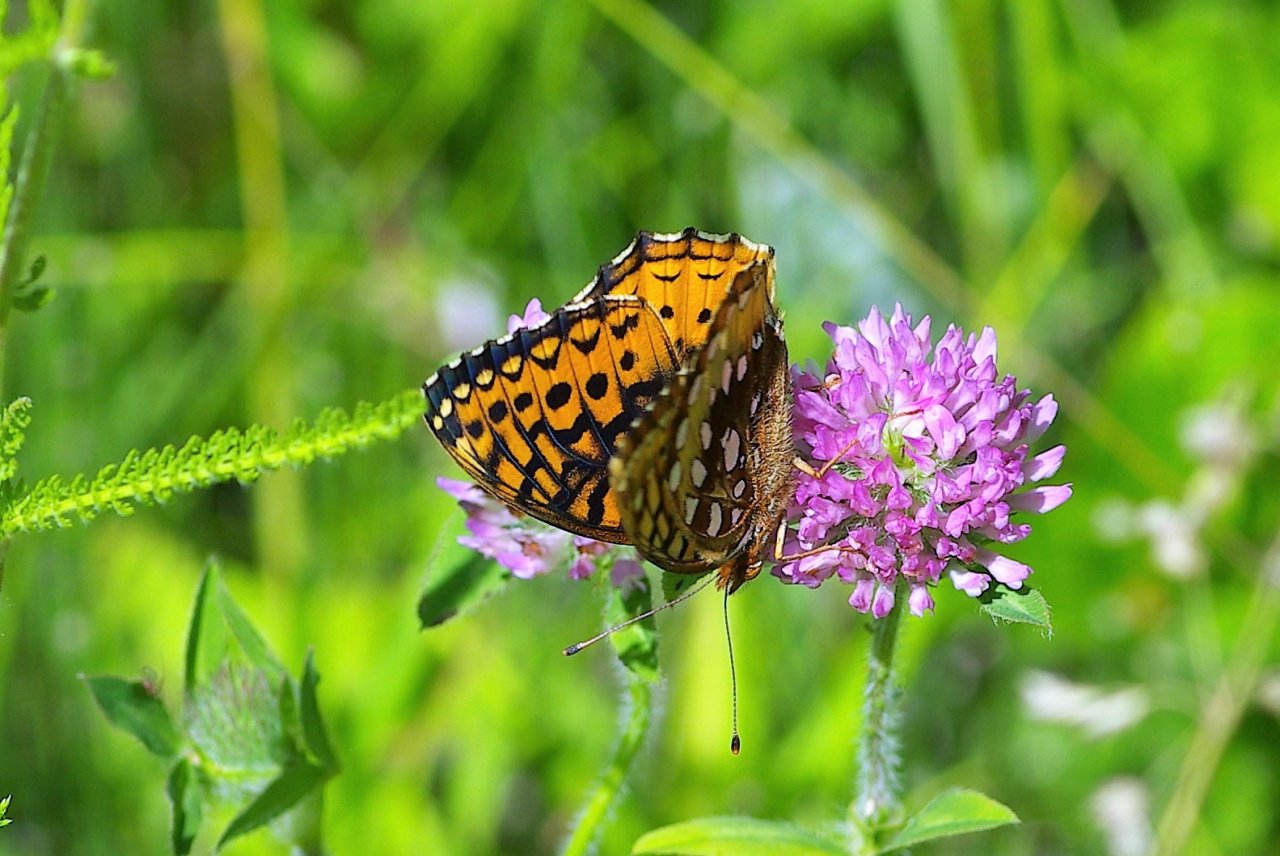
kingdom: Animalia
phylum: Arthropoda
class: Insecta
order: Lepidoptera
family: Nymphalidae
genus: Speyeria
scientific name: Speyeria cybele
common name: Great Spangled Fritillary
